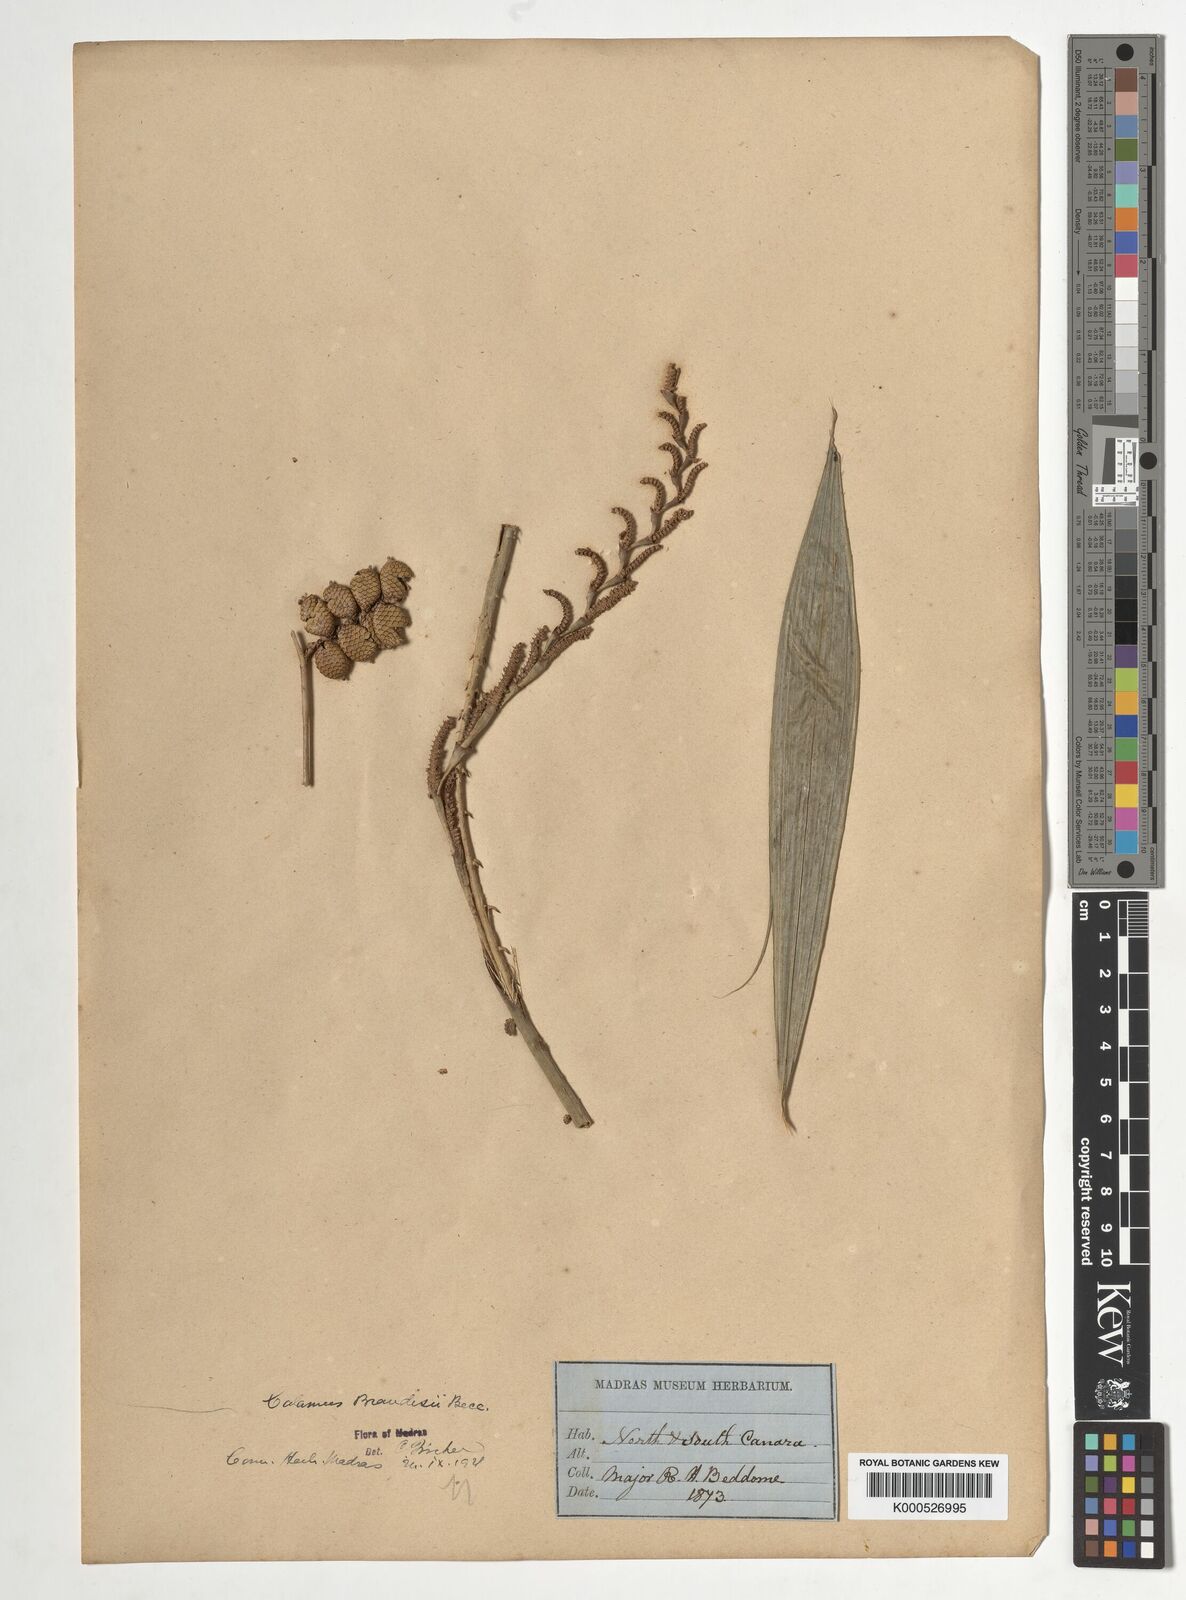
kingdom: Plantae
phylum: Tracheophyta
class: Liliopsida
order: Arecales
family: Arecaceae
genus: Calamus
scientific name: Calamus brandisii
